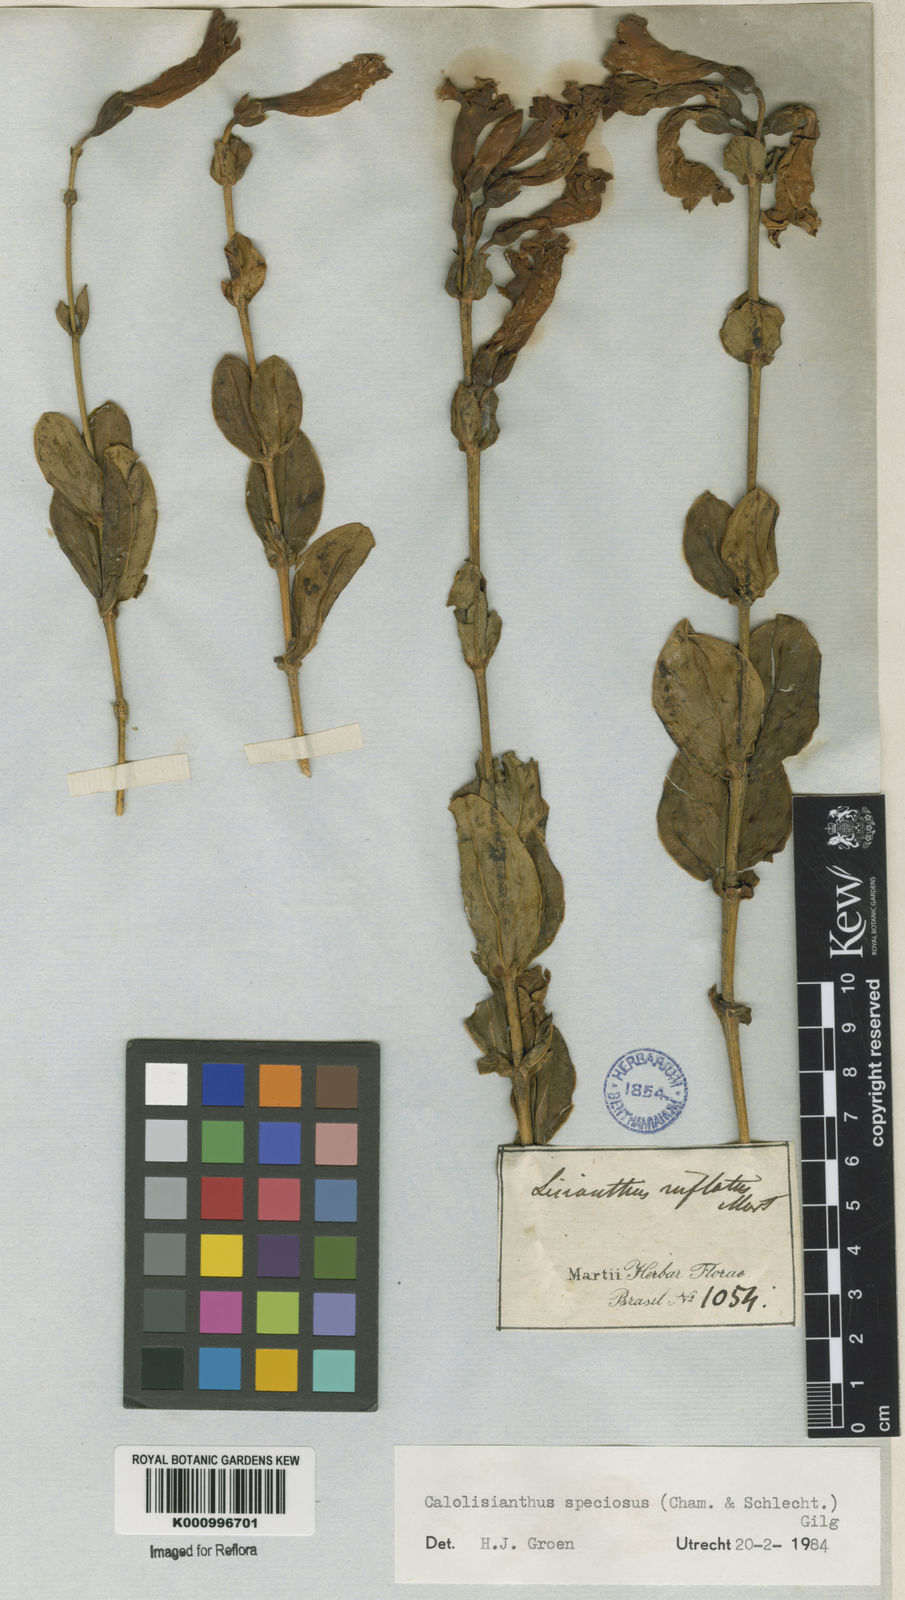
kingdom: Plantae
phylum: Tracheophyta
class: Magnoliopsida
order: Gentianales
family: Gentianaceae
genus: Calolisianthus
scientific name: Calolisianthus speciosus
